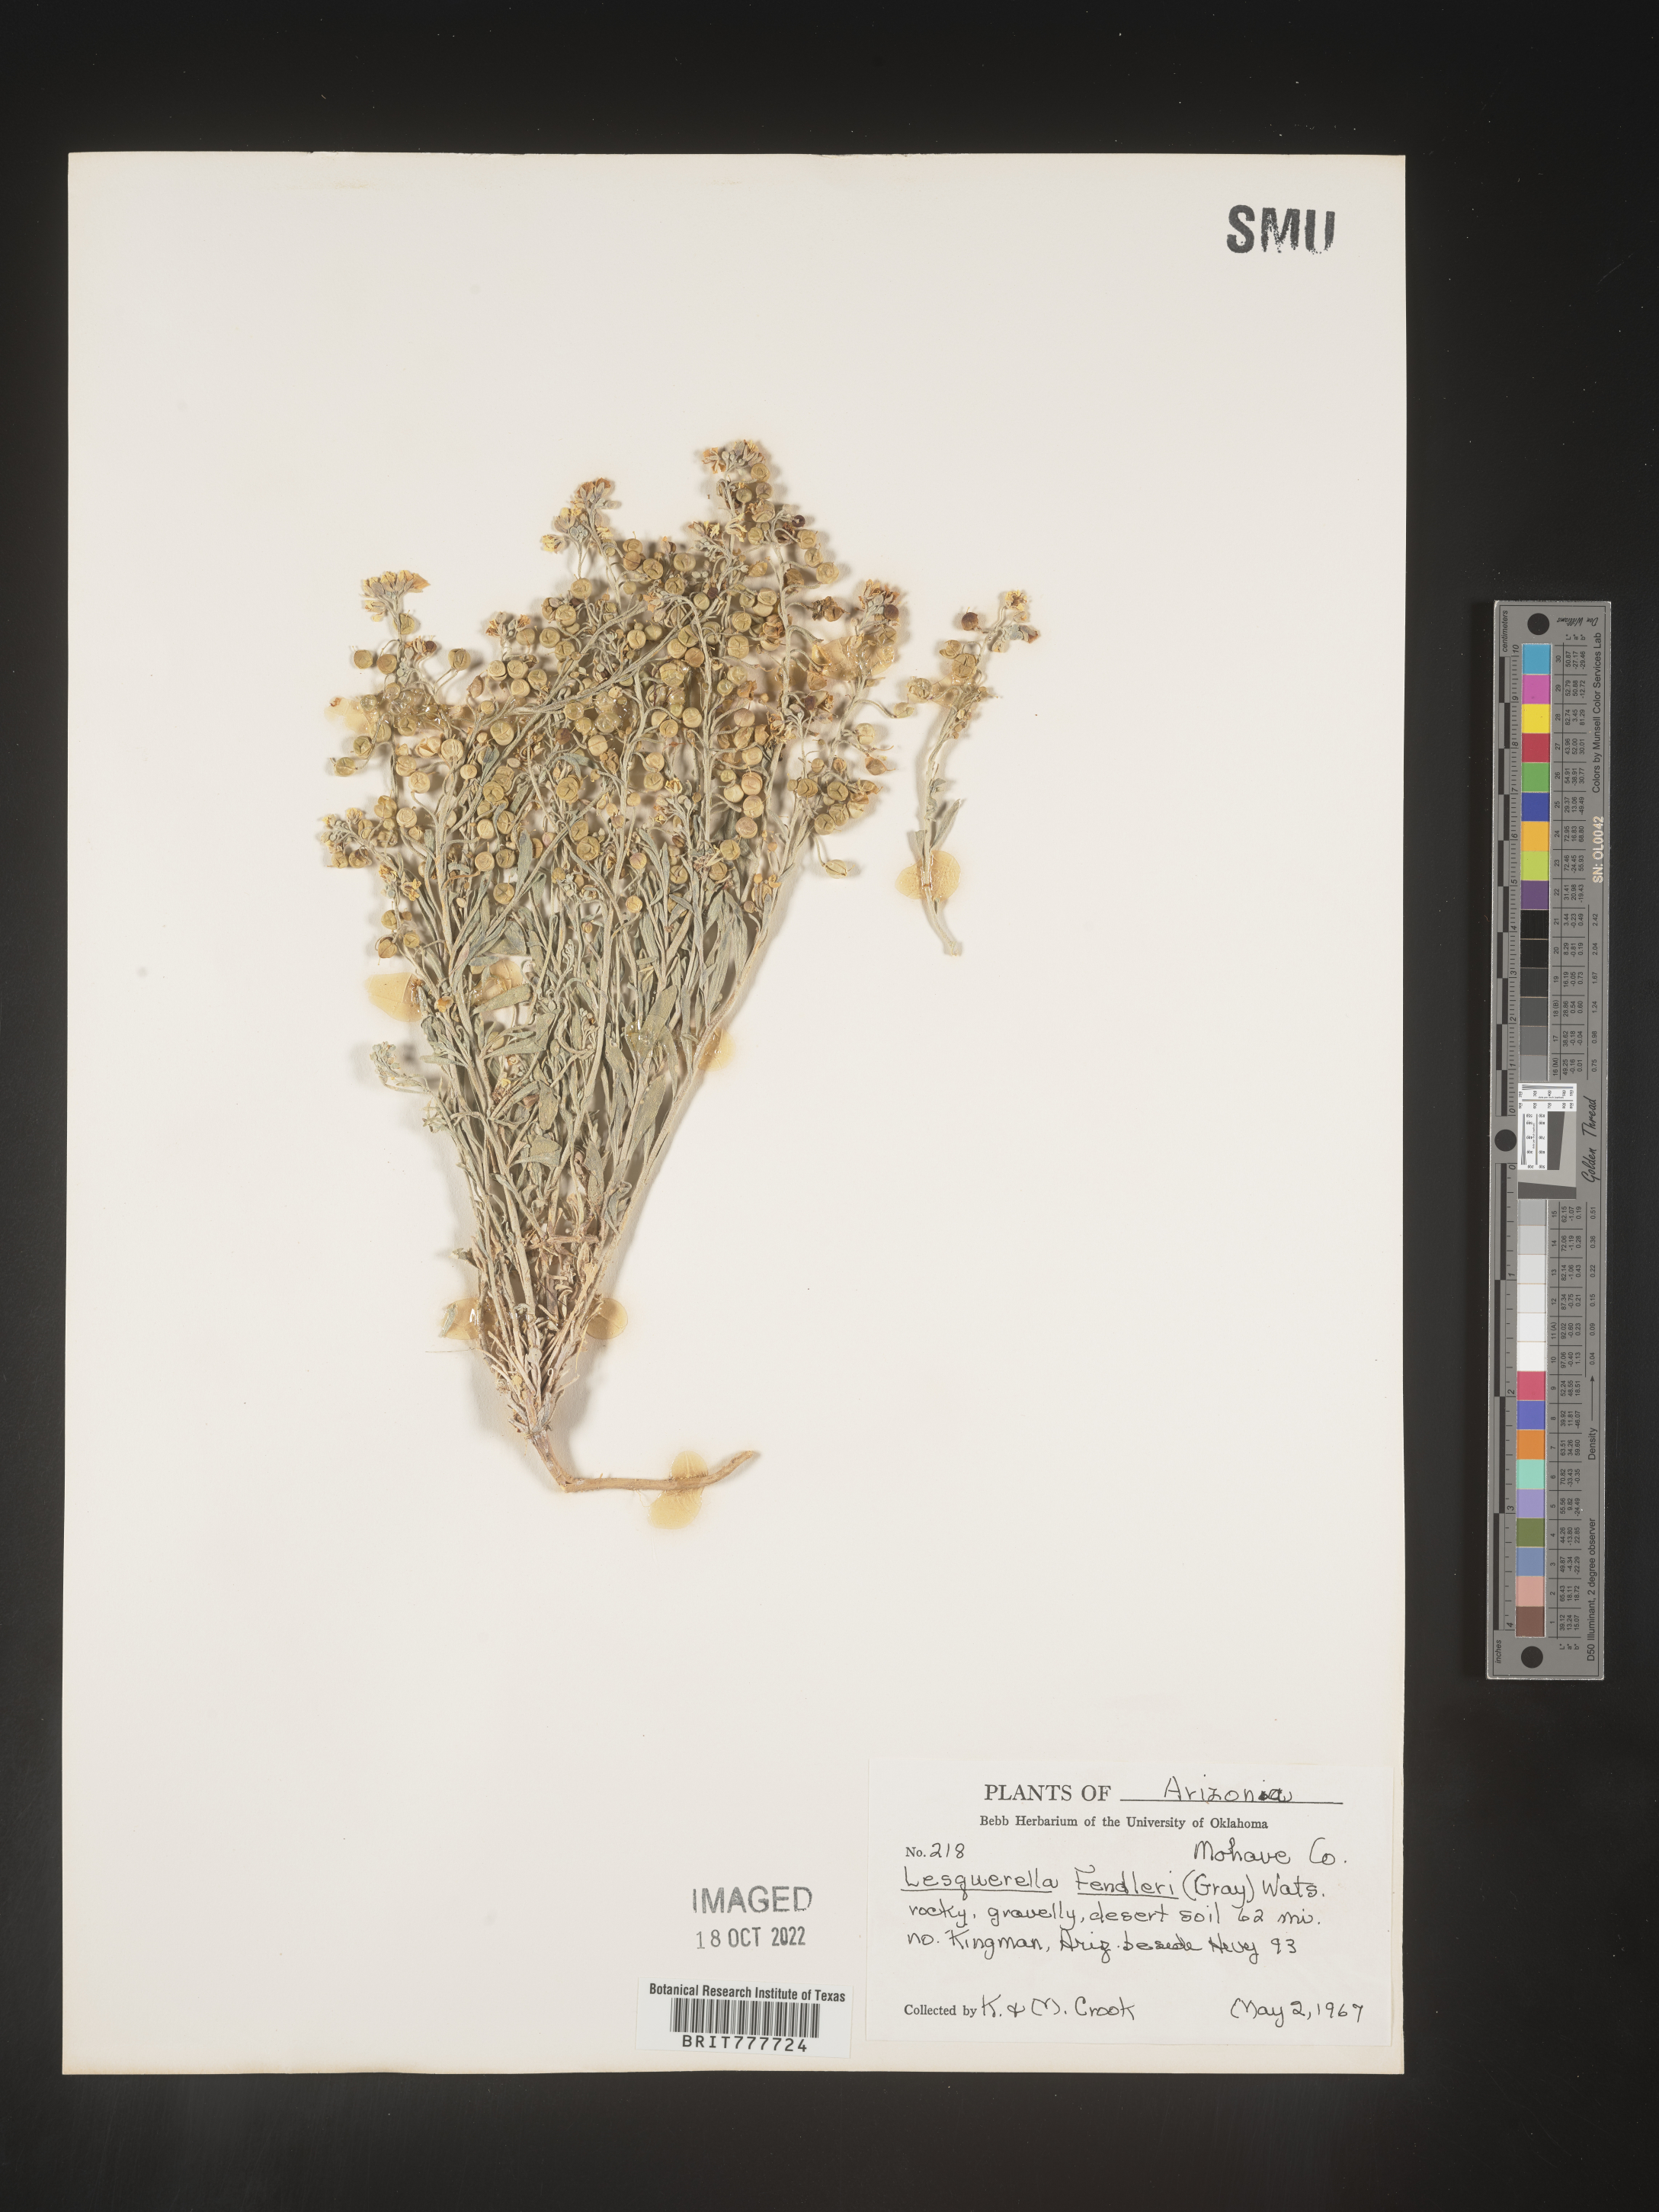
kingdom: Plantae
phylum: Tracheophyta
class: Magnoliopsida
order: Brassicales
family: Brassicaceae
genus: Physaria
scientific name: Physaria fendleri
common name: Fendler's bladderpod
